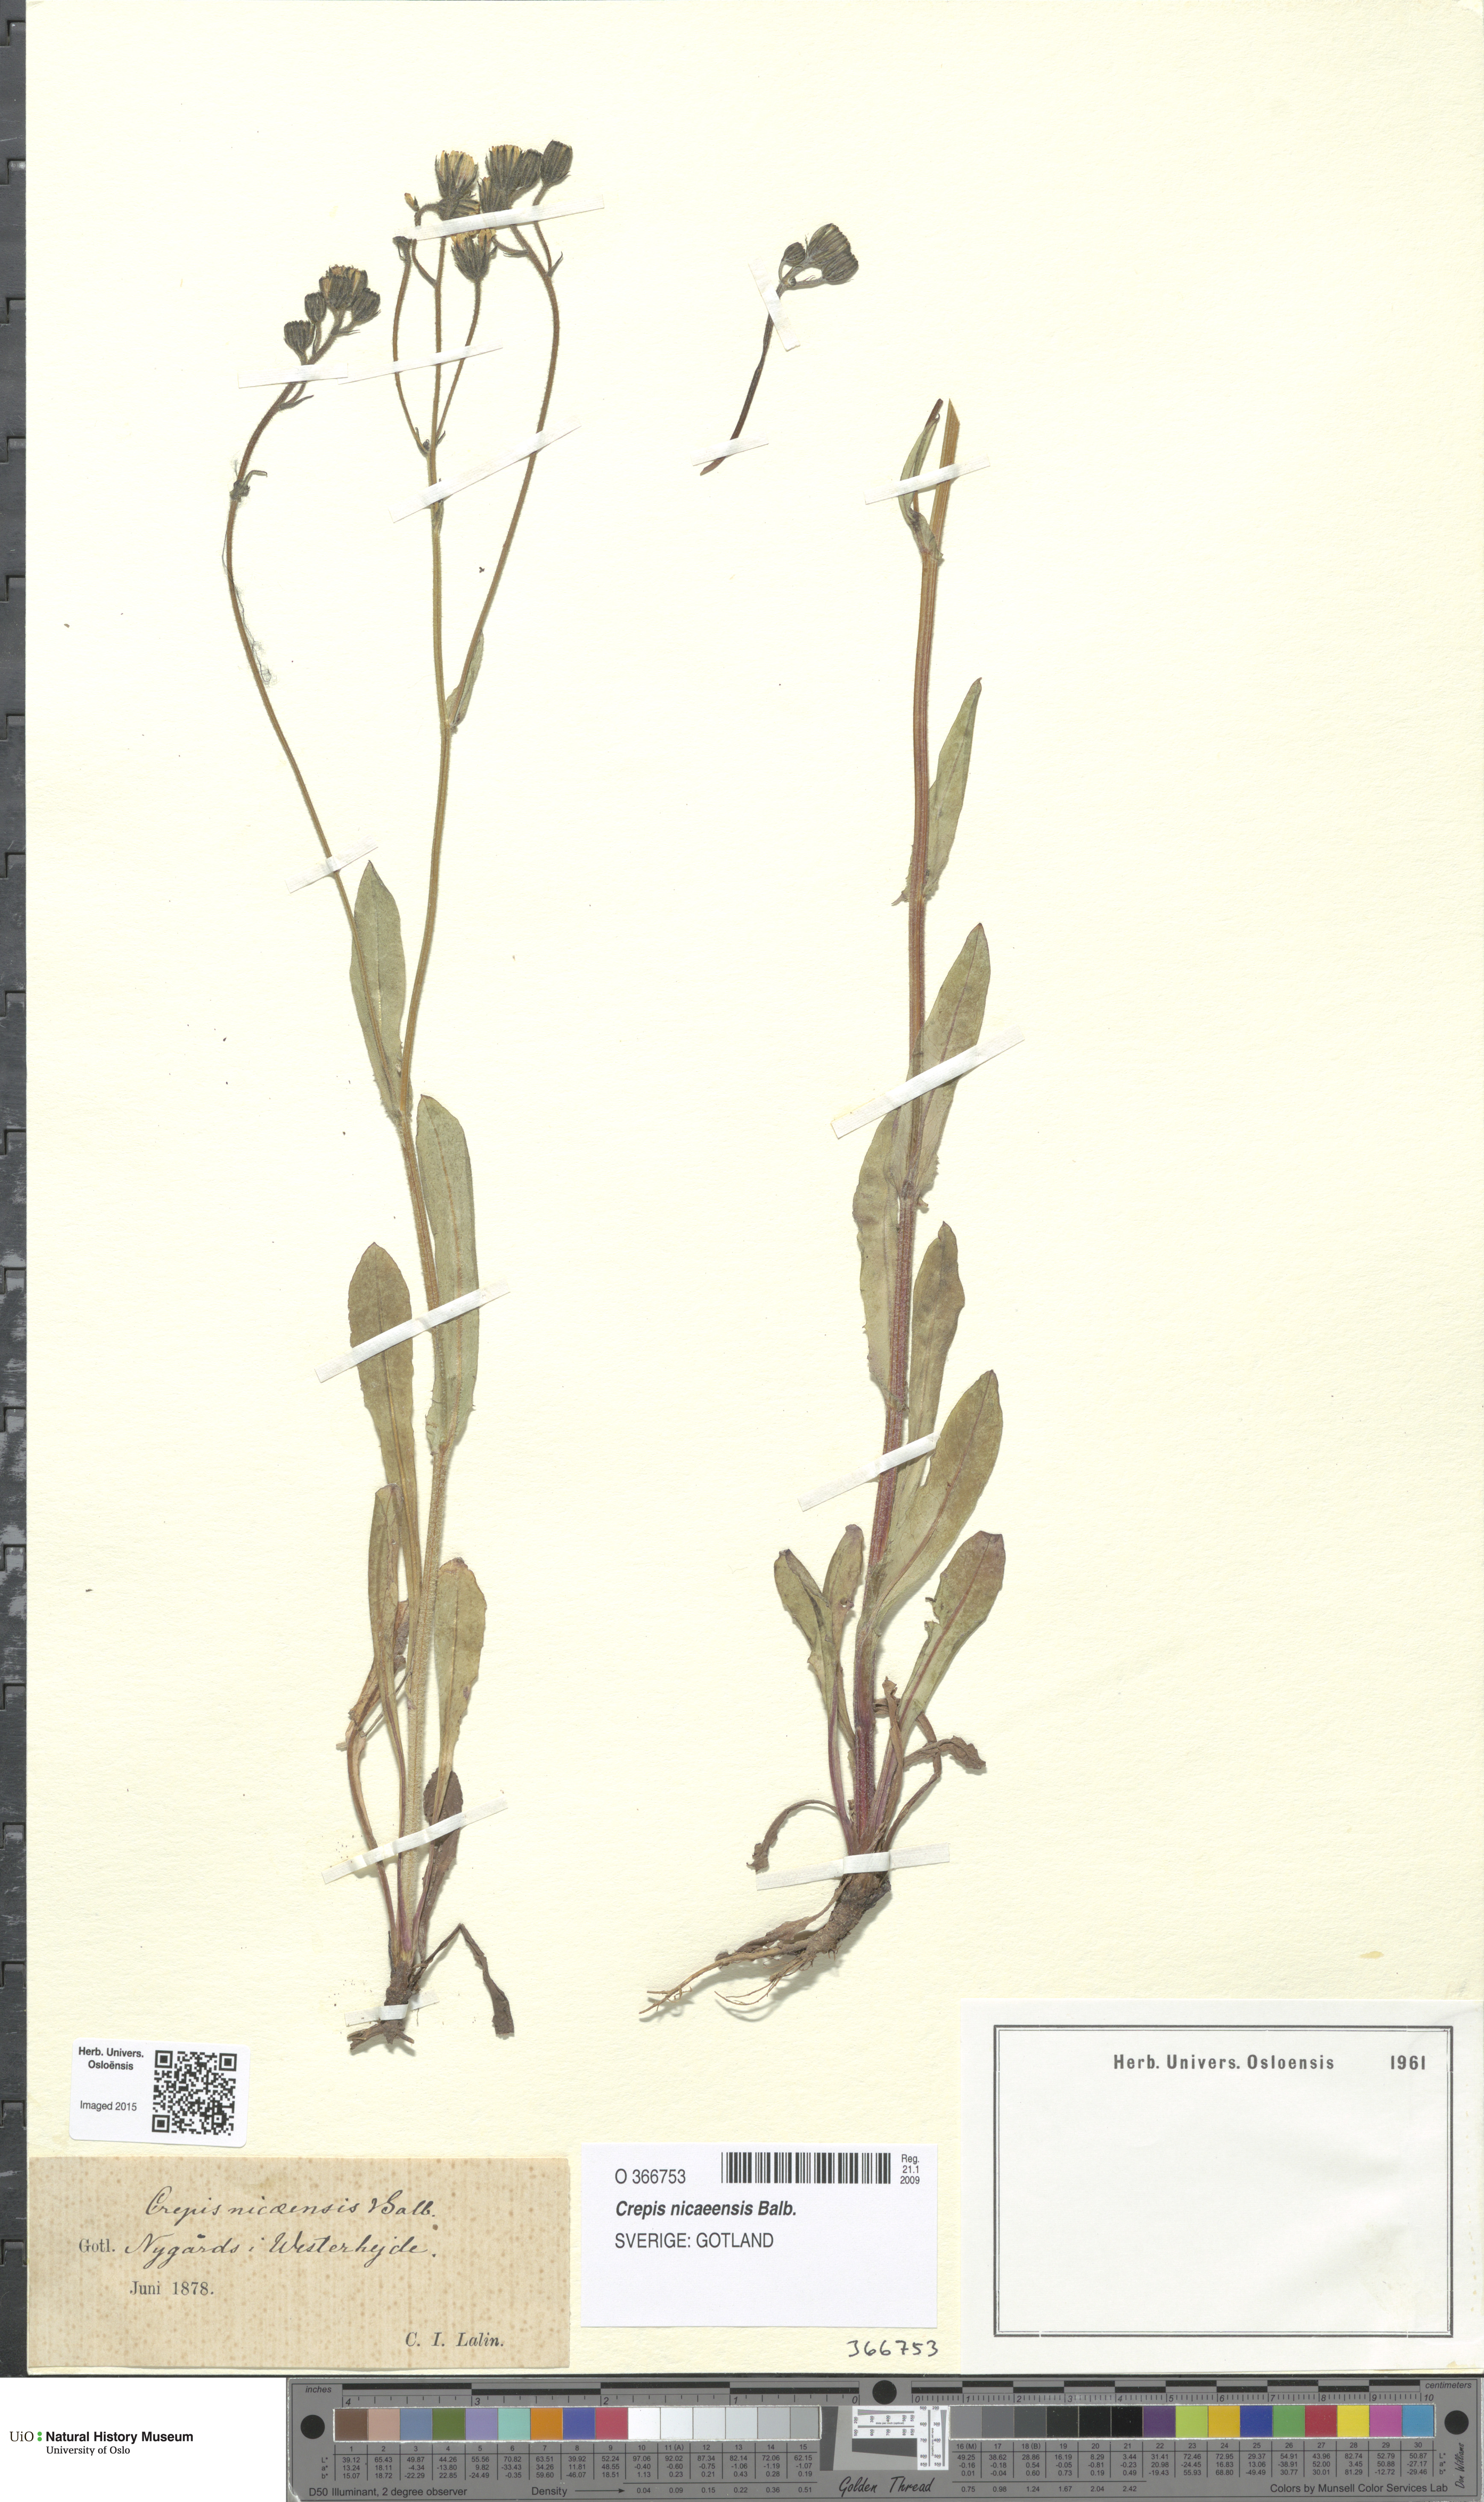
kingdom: Plantae
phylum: Tracheophyta
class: Magnoliopsida
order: Asterales
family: Asteraceae
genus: Crepis
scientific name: Crepis nicaeensis
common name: Turkish hawksbeard
